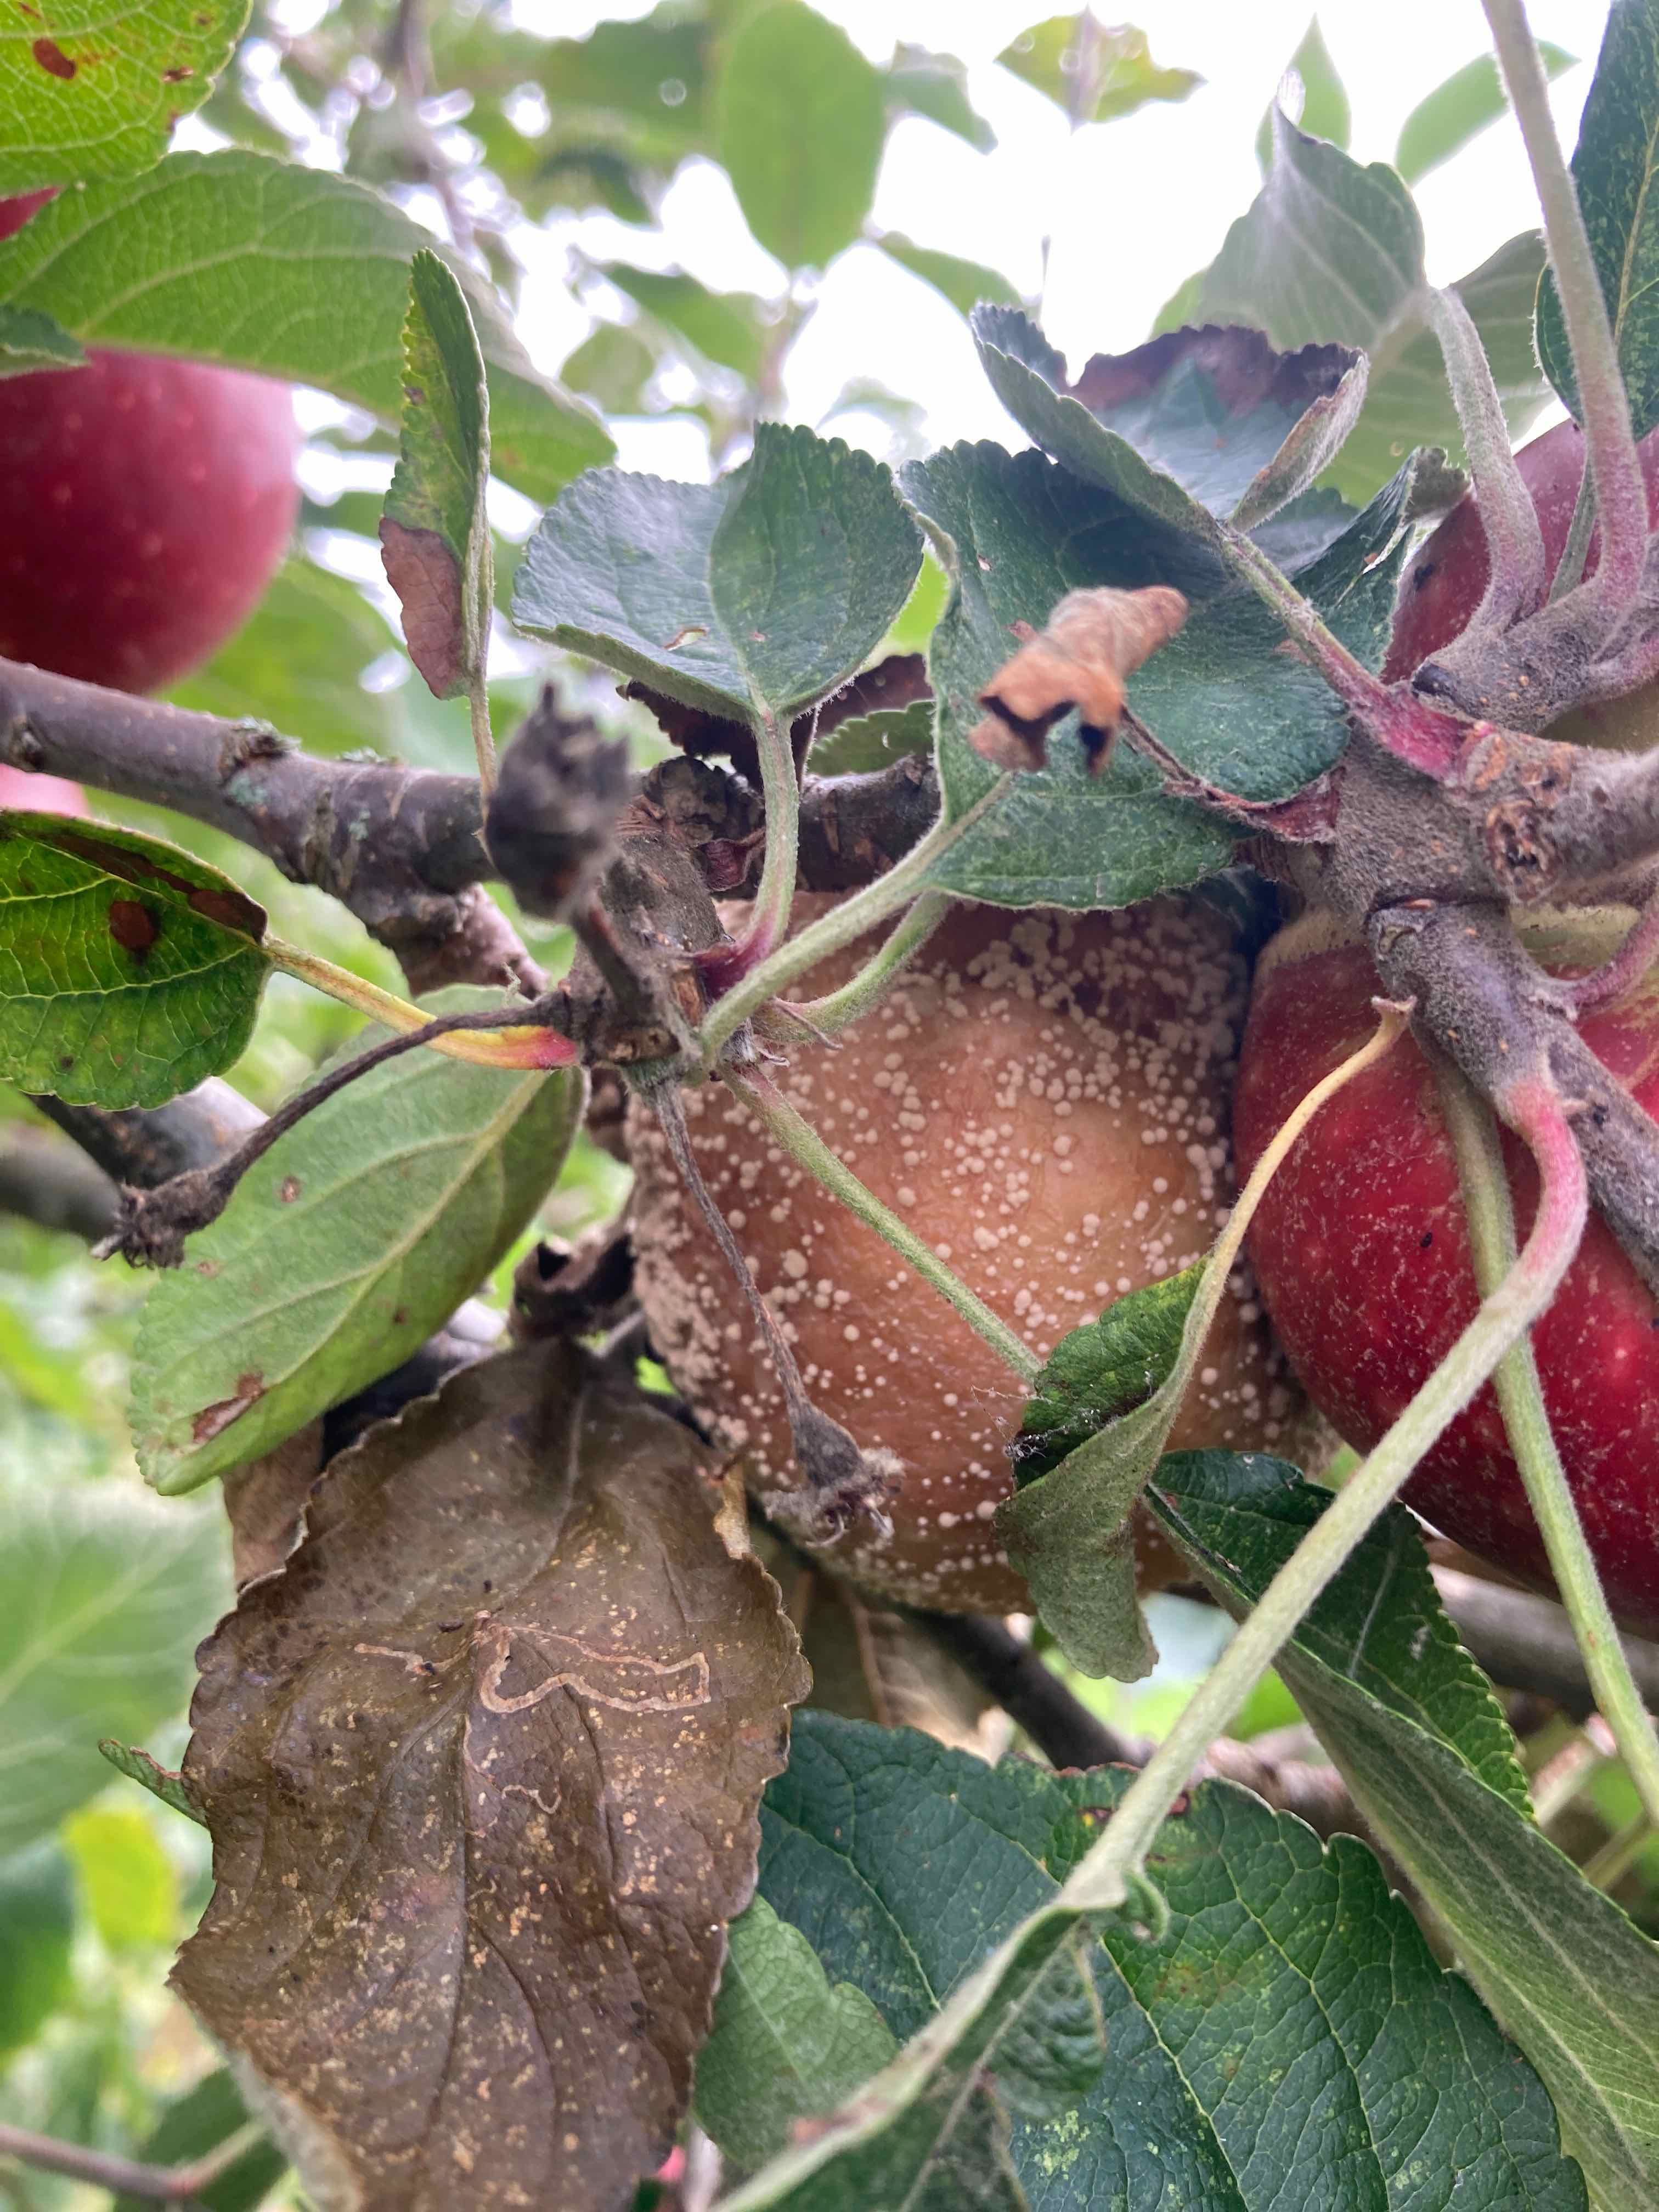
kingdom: Fungi
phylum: Ascomycota
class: Leotiomycetes
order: Helotiales
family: Sclerotiniaceae
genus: Monilinia
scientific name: Monilinia fructigena
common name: æble-knoldskive
